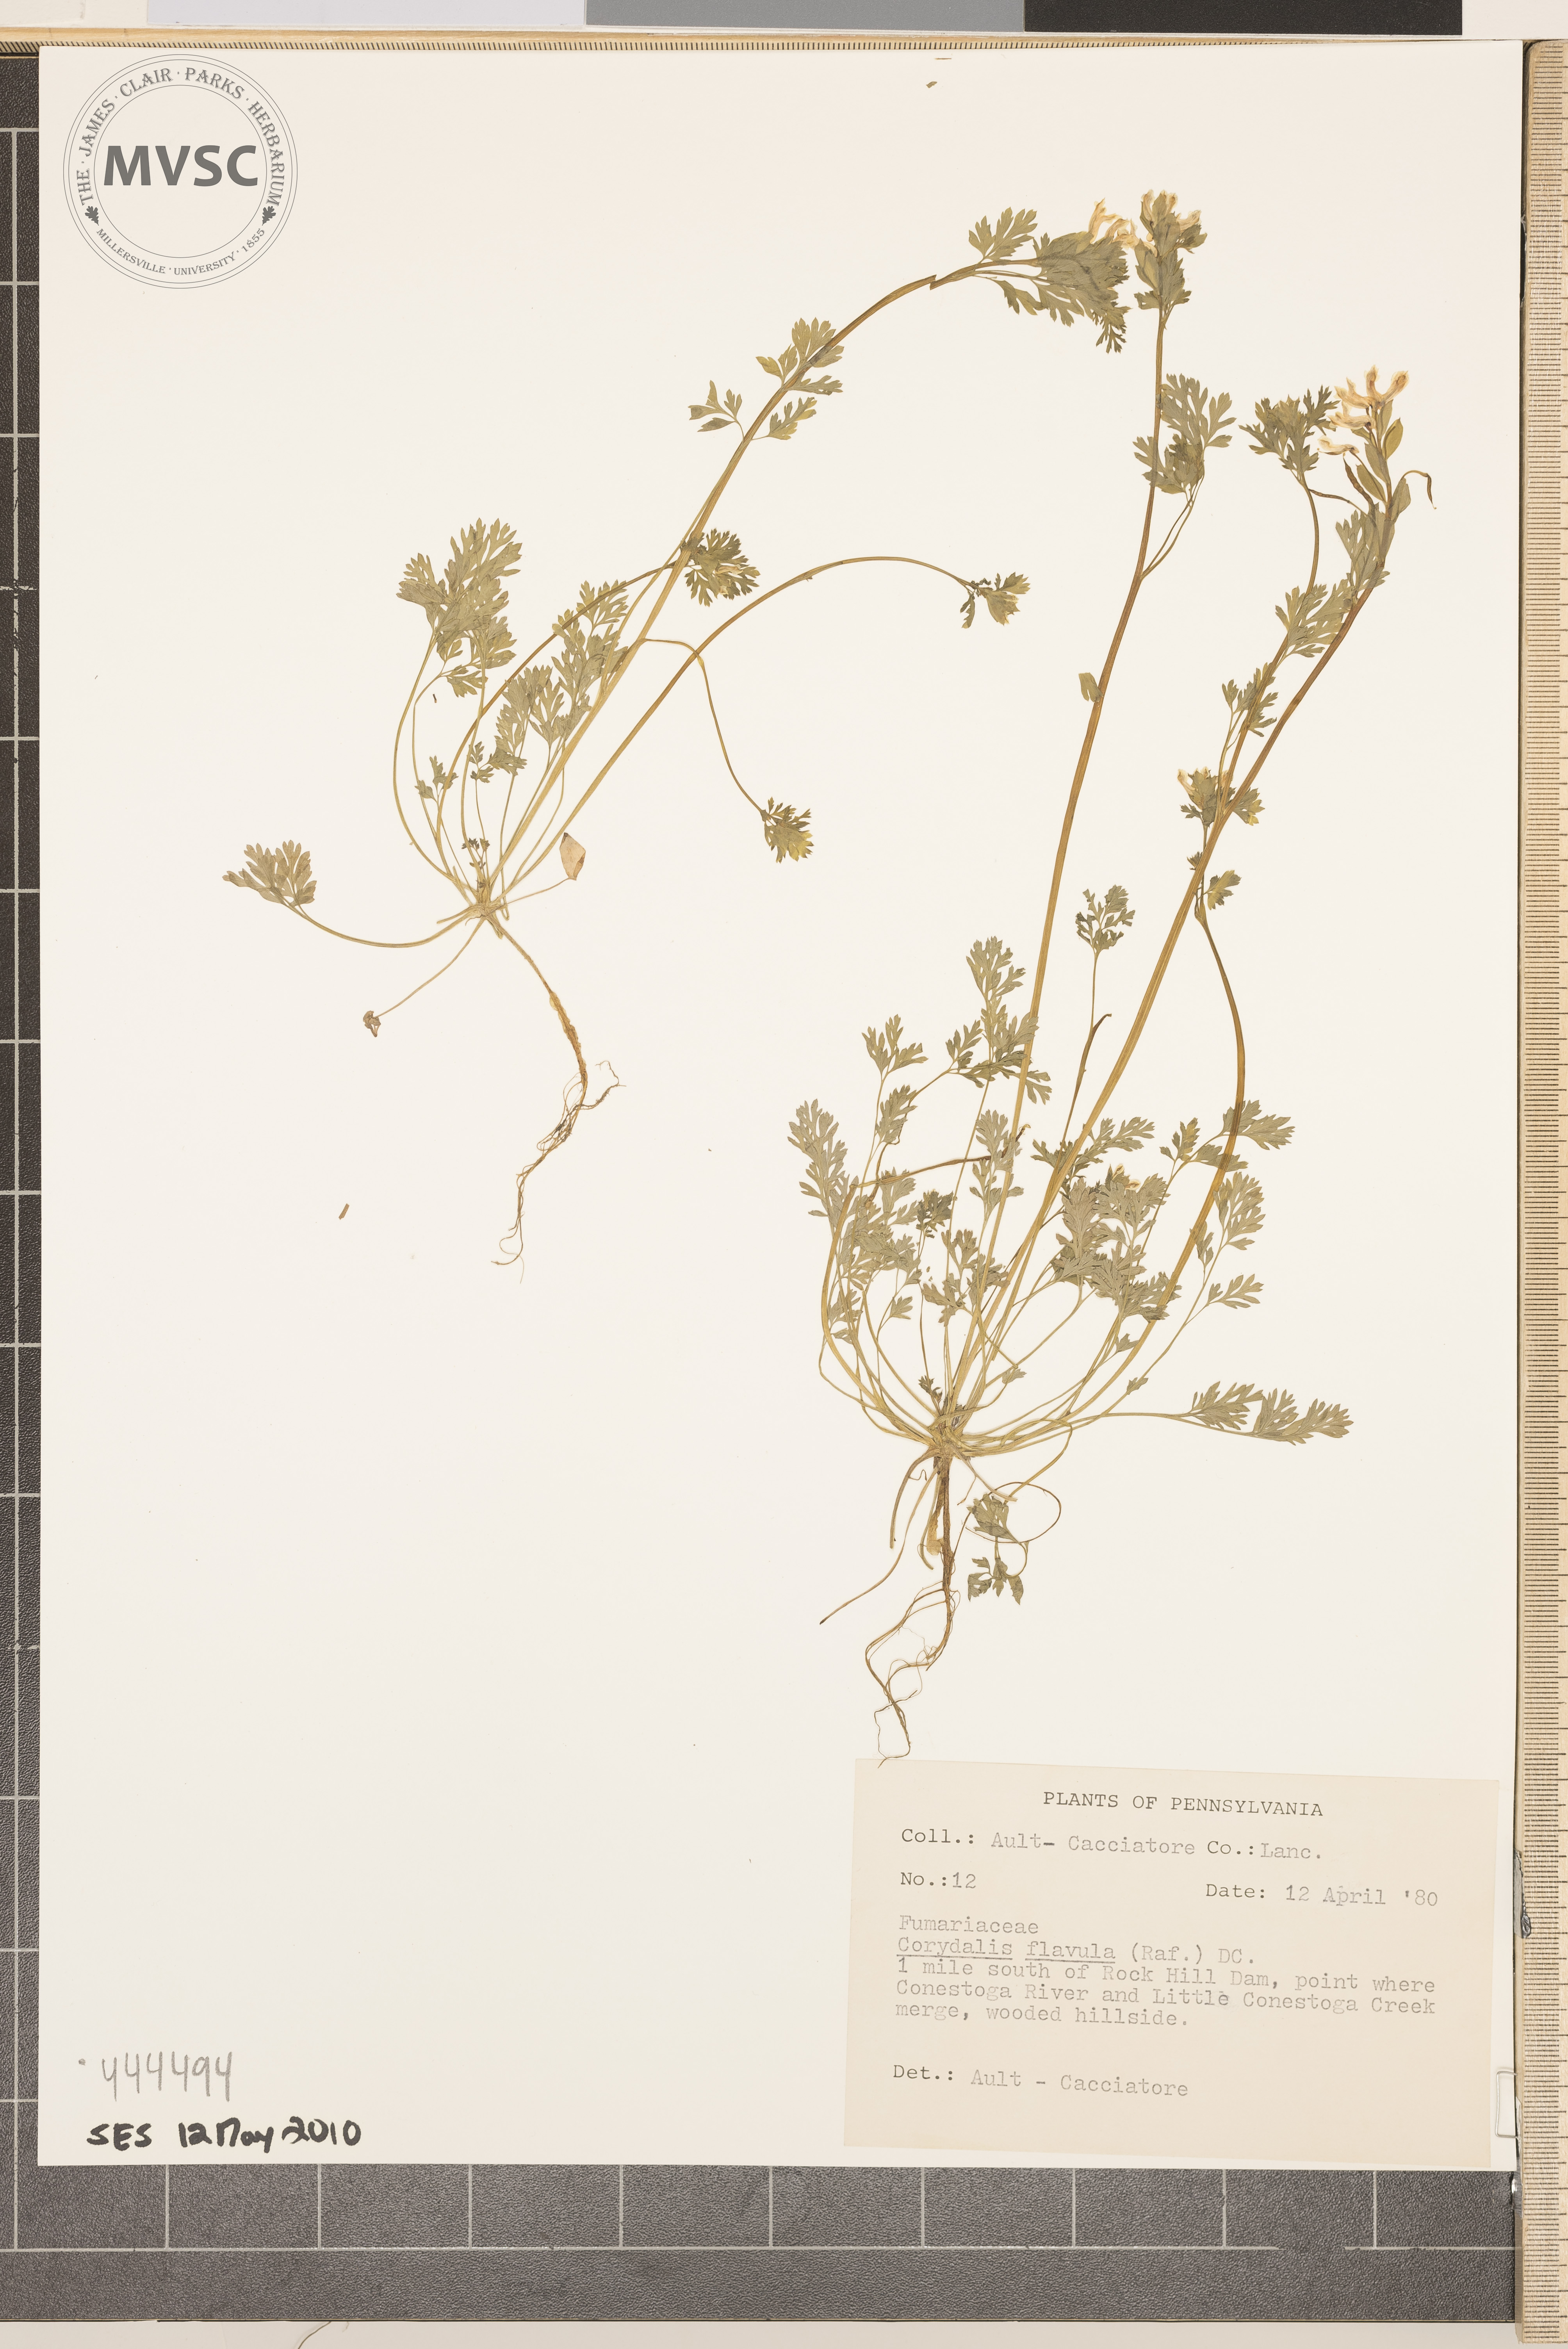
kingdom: Plantae
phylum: Tracheophyta
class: Magnoliopsida
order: Ranunculales
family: Papaveraceae
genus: Corydalis
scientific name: Corydalis flavula
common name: Yellow corydalis
